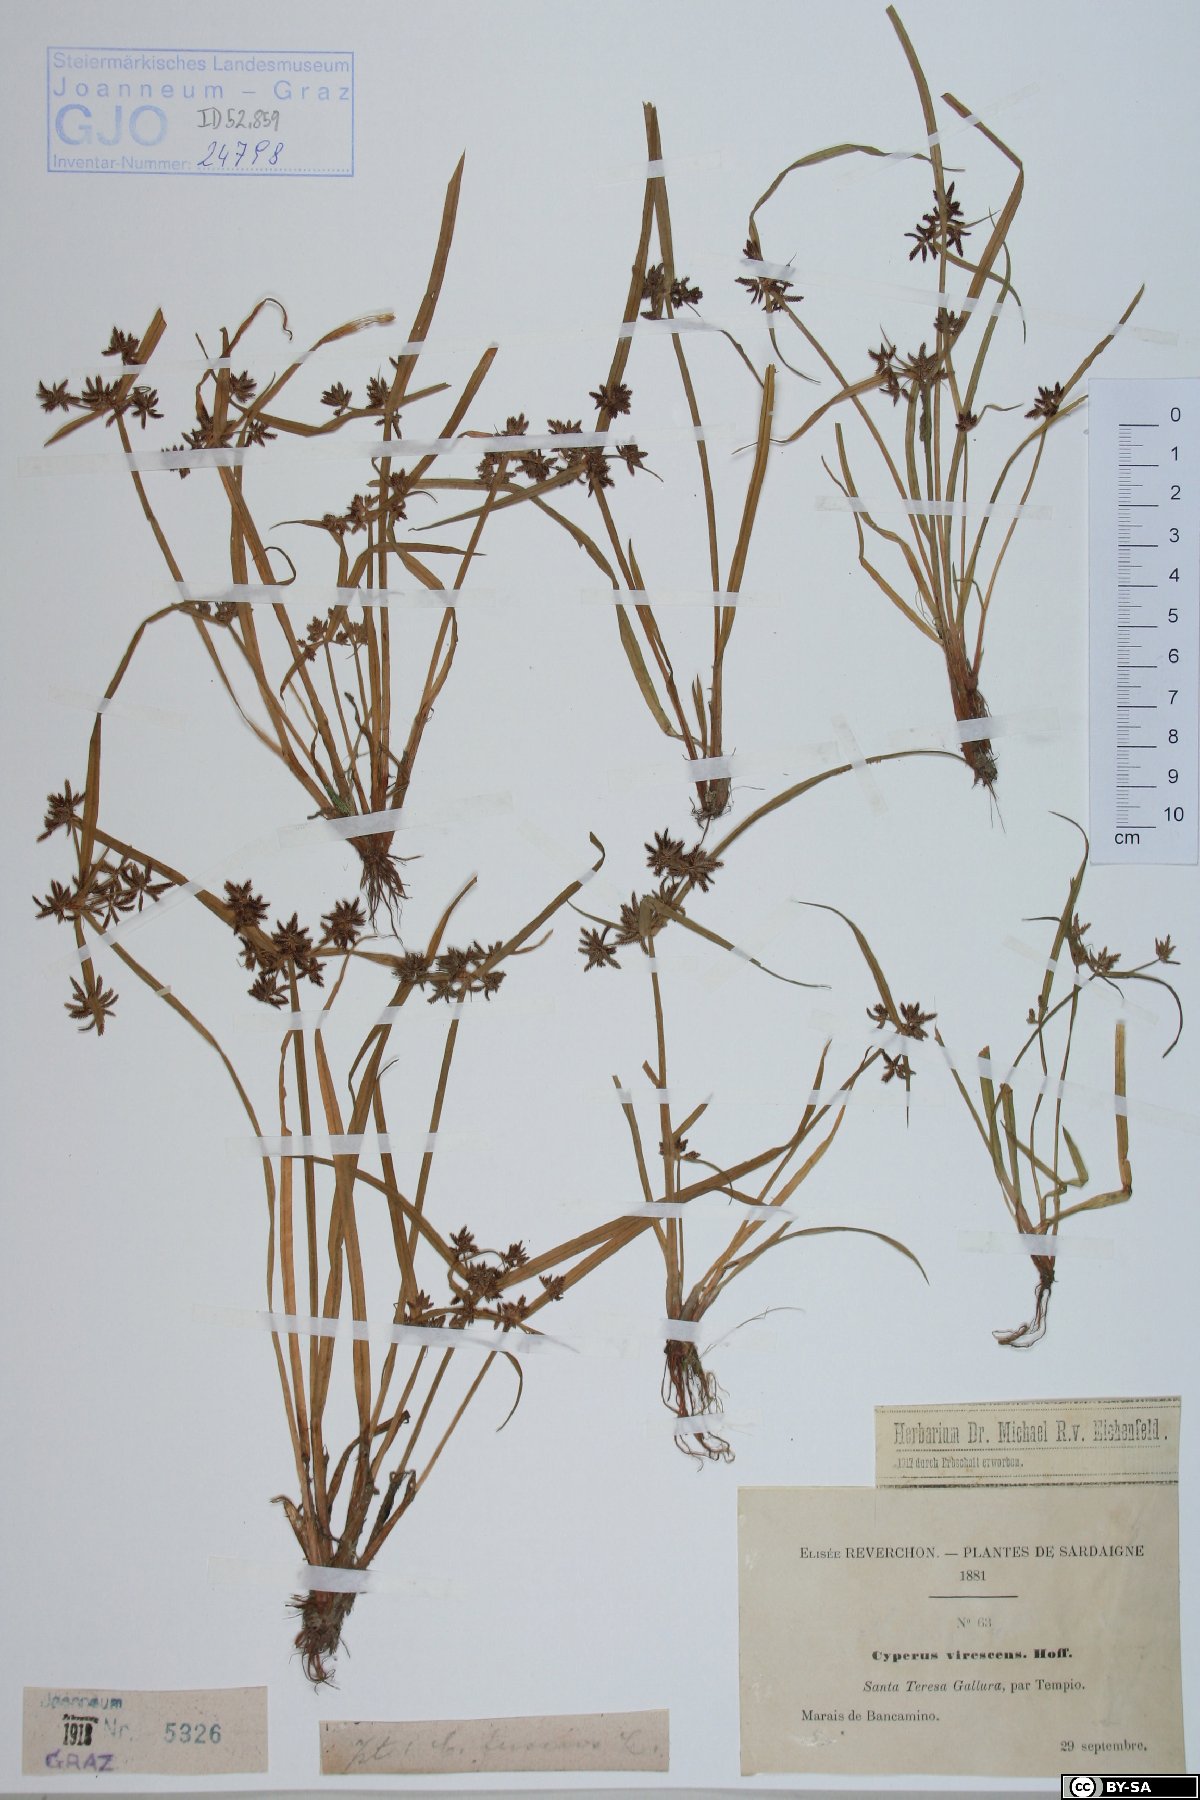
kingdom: Plantae
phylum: Tracheophyta
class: Liliopsida
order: Poales
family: Cyperaceae
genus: Cyperus
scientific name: Cyperus fuscus
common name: Brown galingale
